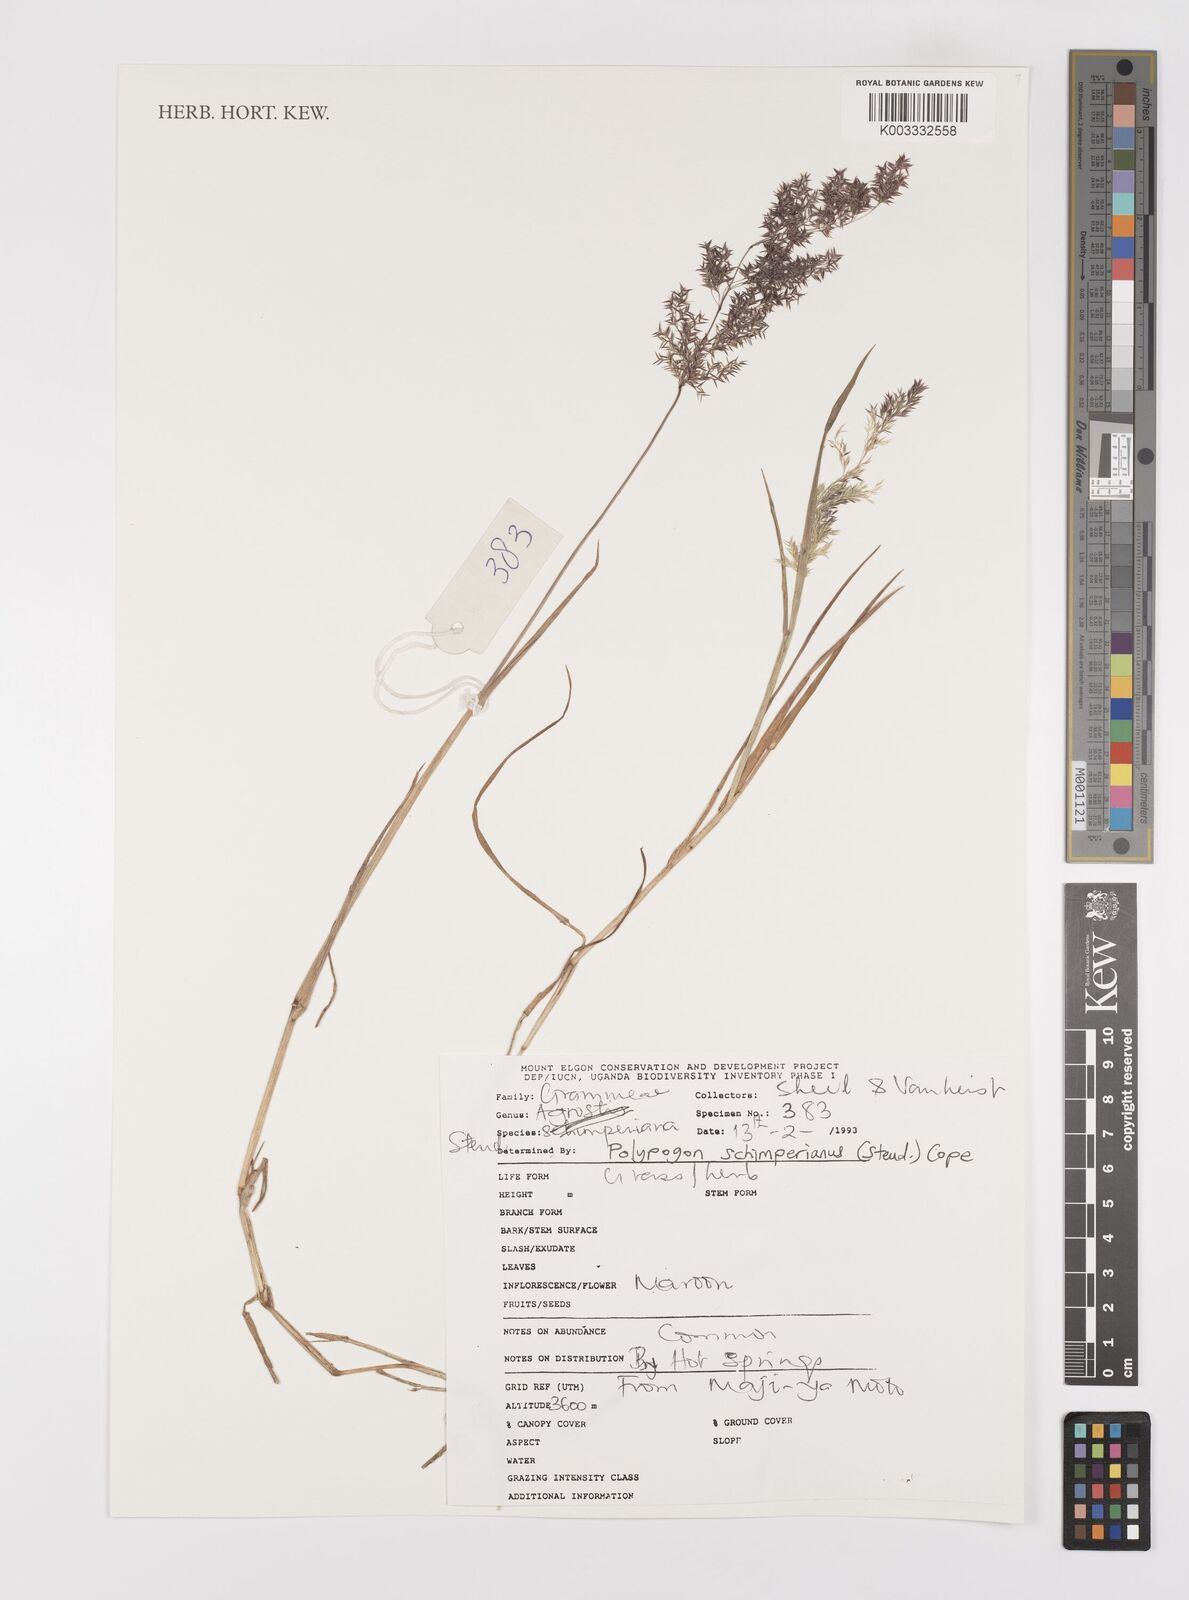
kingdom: Plantae
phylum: Tracheophyta
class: Liliopsida
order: Poales
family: Poaceae
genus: Polypogon
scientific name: Polypogon schimperianus
